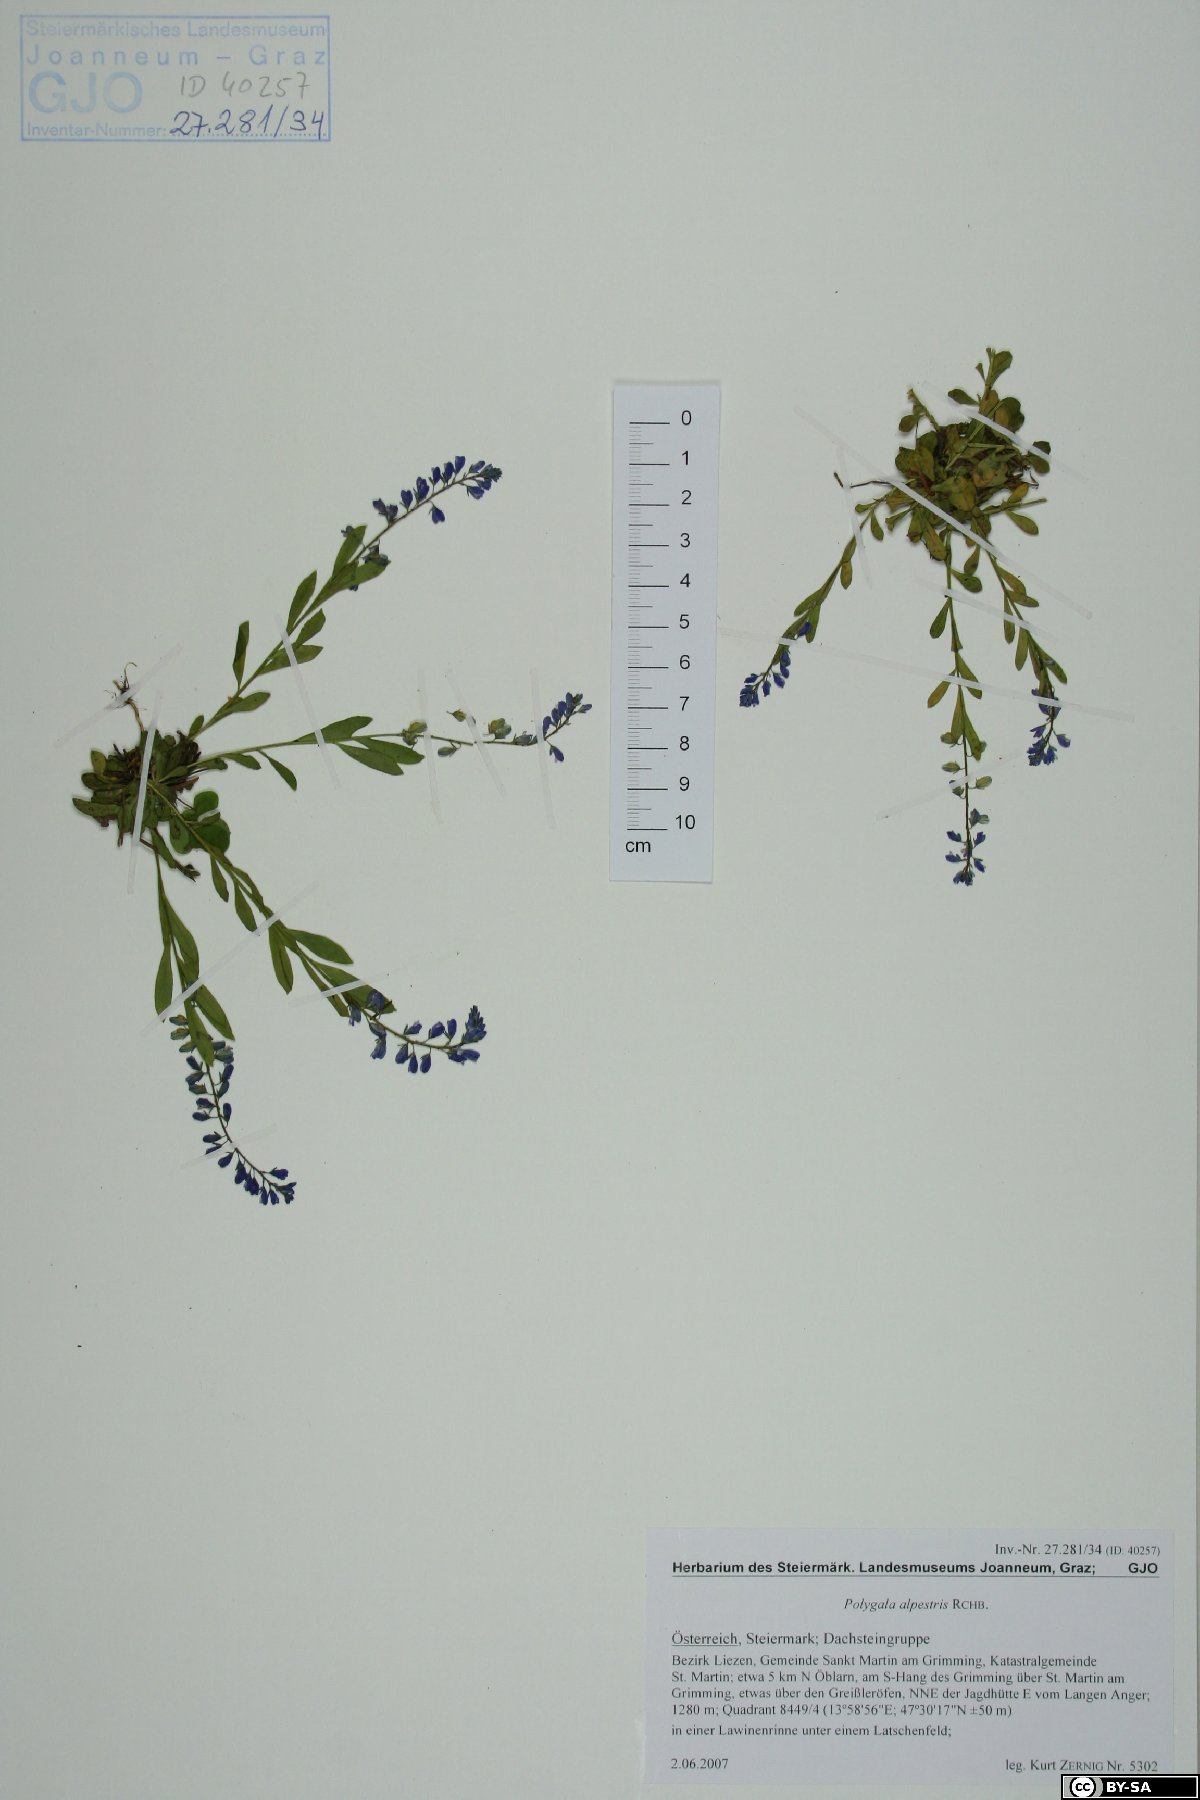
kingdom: Plantae
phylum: Tracheophyta
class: Magnoliopsida
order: Fabales
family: Polygalaceae
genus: Polygala
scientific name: Polygala alpestris
